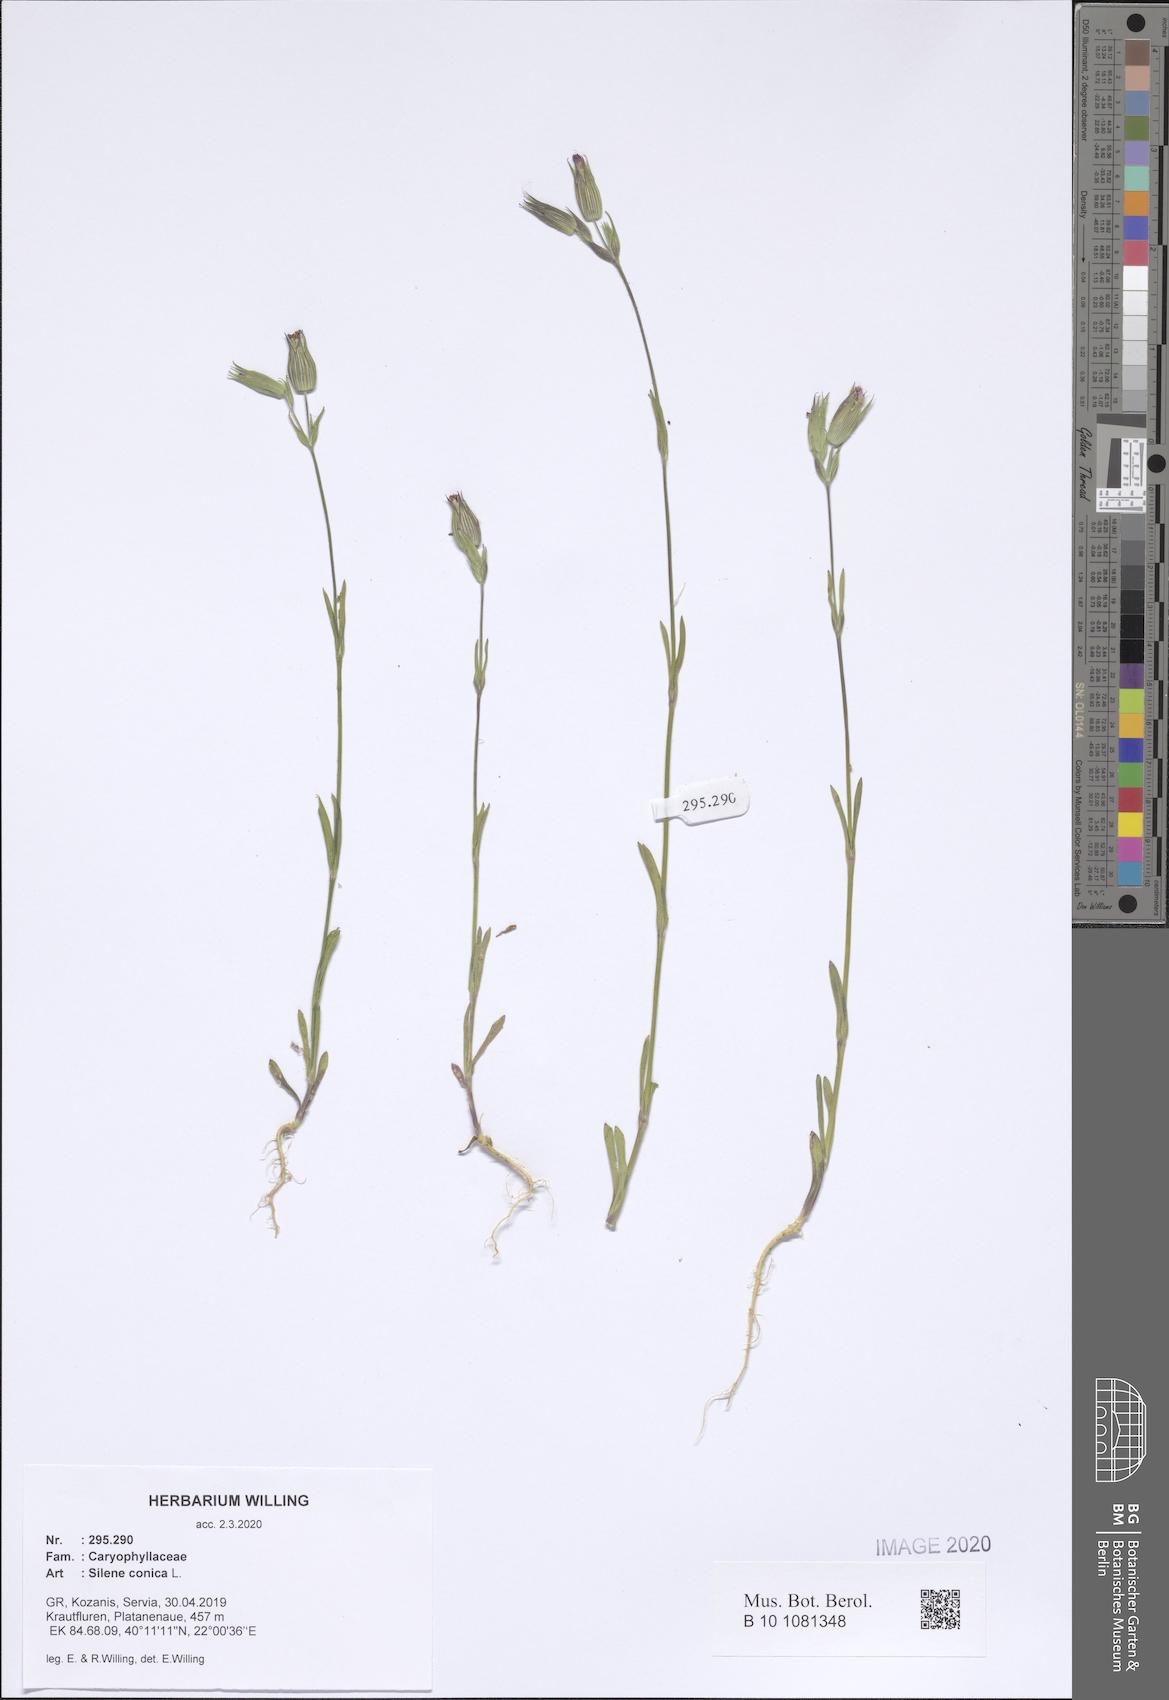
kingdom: Plantae
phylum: Tracheophyta
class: Magnoliopsida
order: Caryophyllales
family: Caryophyllaceae
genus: Silene
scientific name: Silene conica
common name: Sand catchfly
